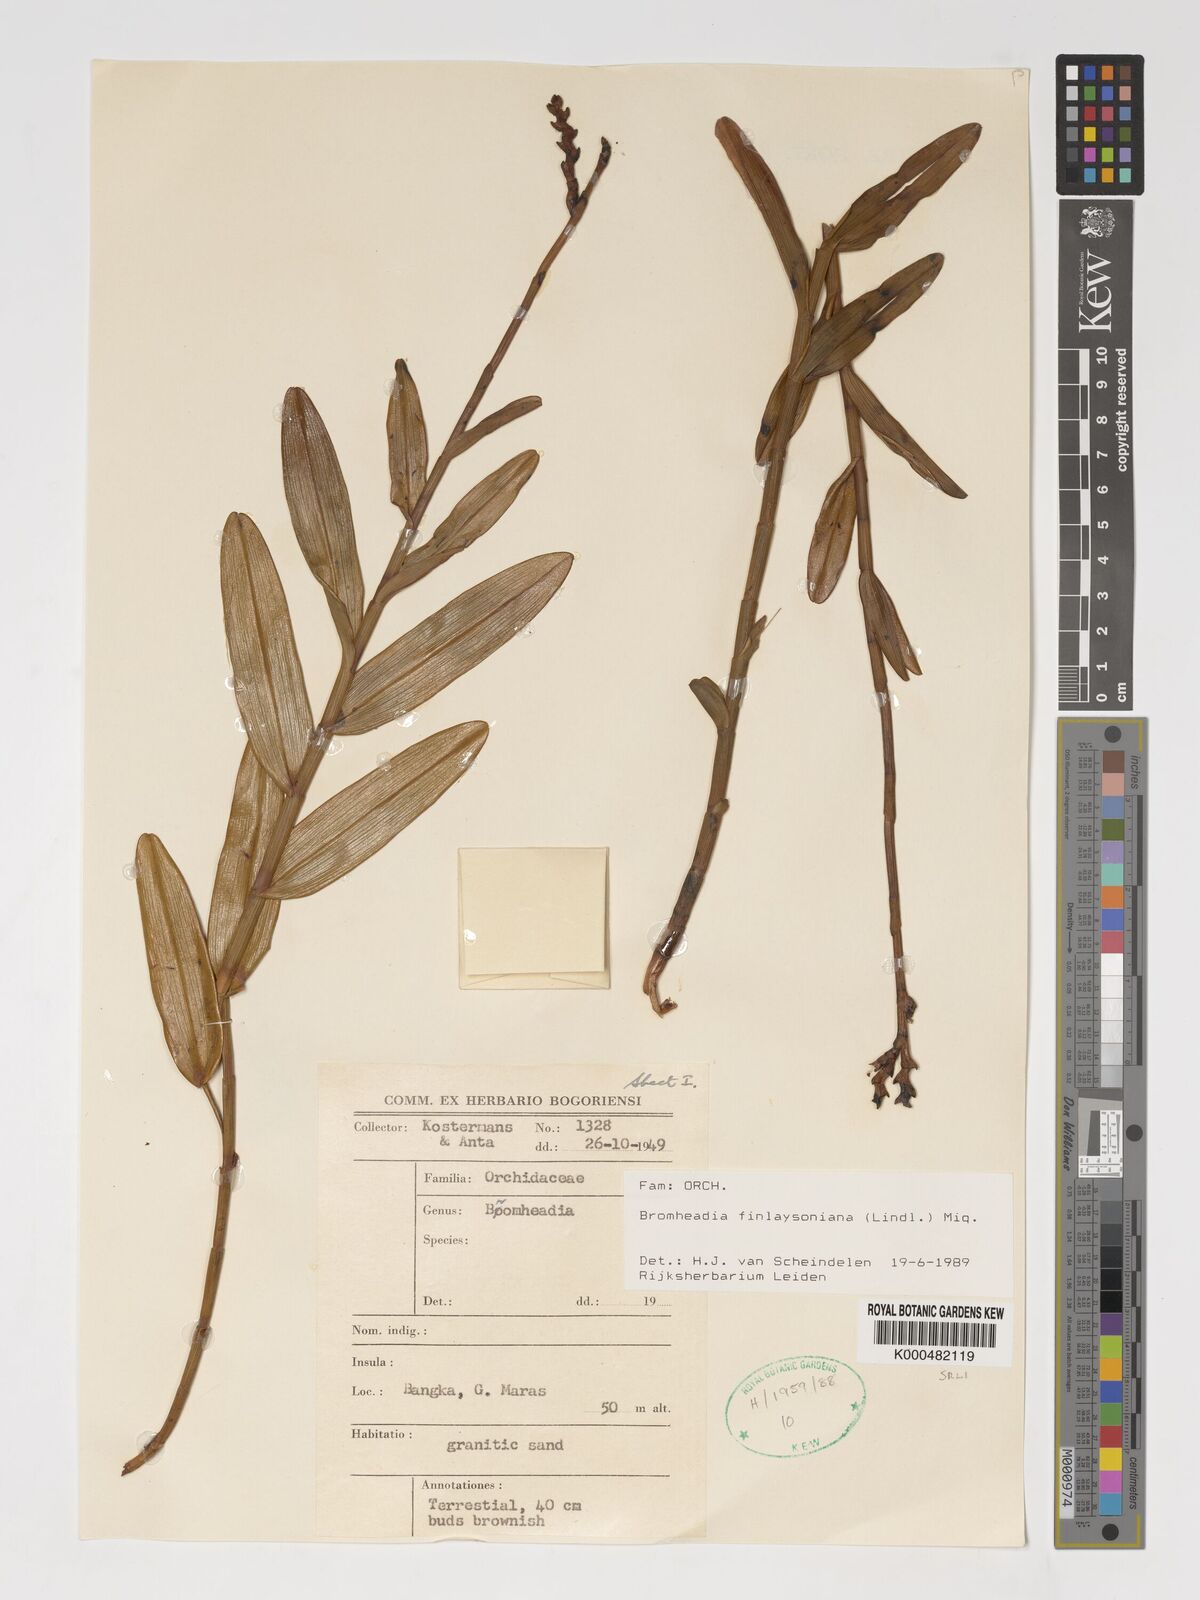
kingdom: Plantae
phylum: Tracheophyta
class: Liliopsida
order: Asparagales
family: Orchidaceae
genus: Bromheadia
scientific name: Bromheadia finlaysoniana
